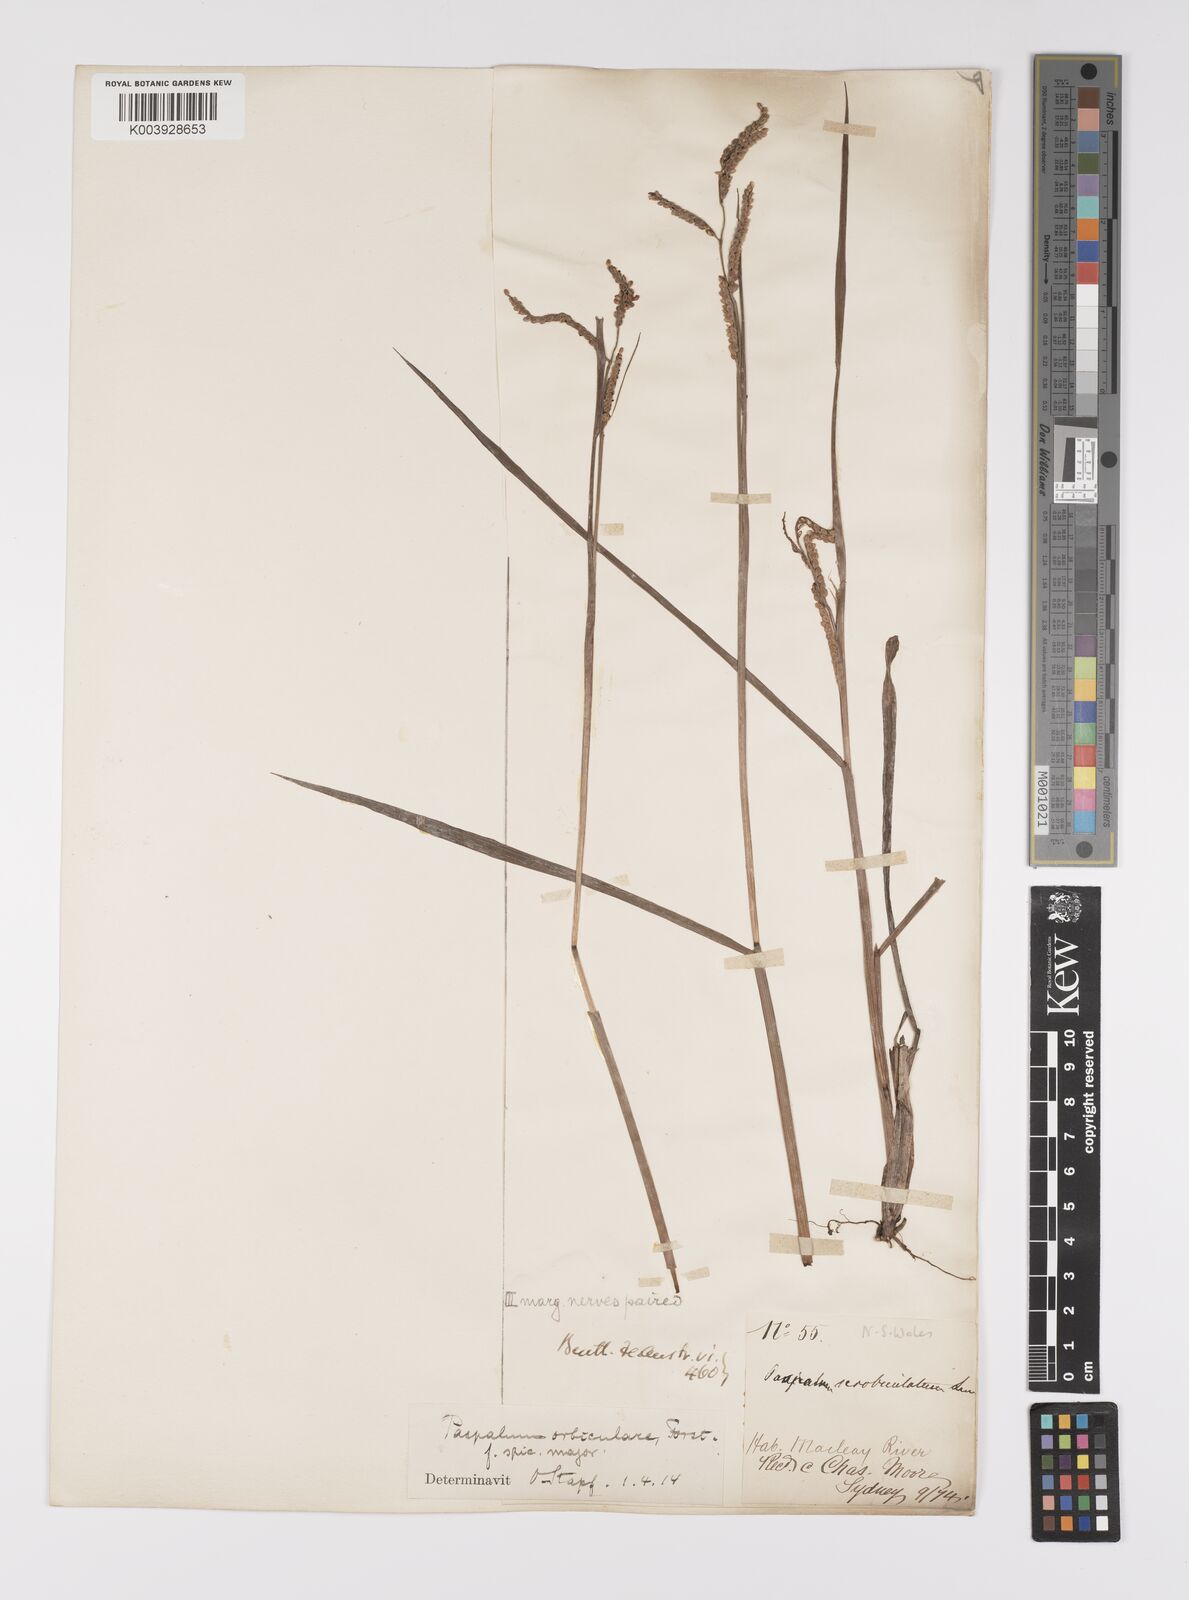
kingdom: Plantae
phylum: Tracheophyta
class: Liliopsida
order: Poales
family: Poaceae
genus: Paspalum
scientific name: Paspalum scrobiculatum
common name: Kodo millet
